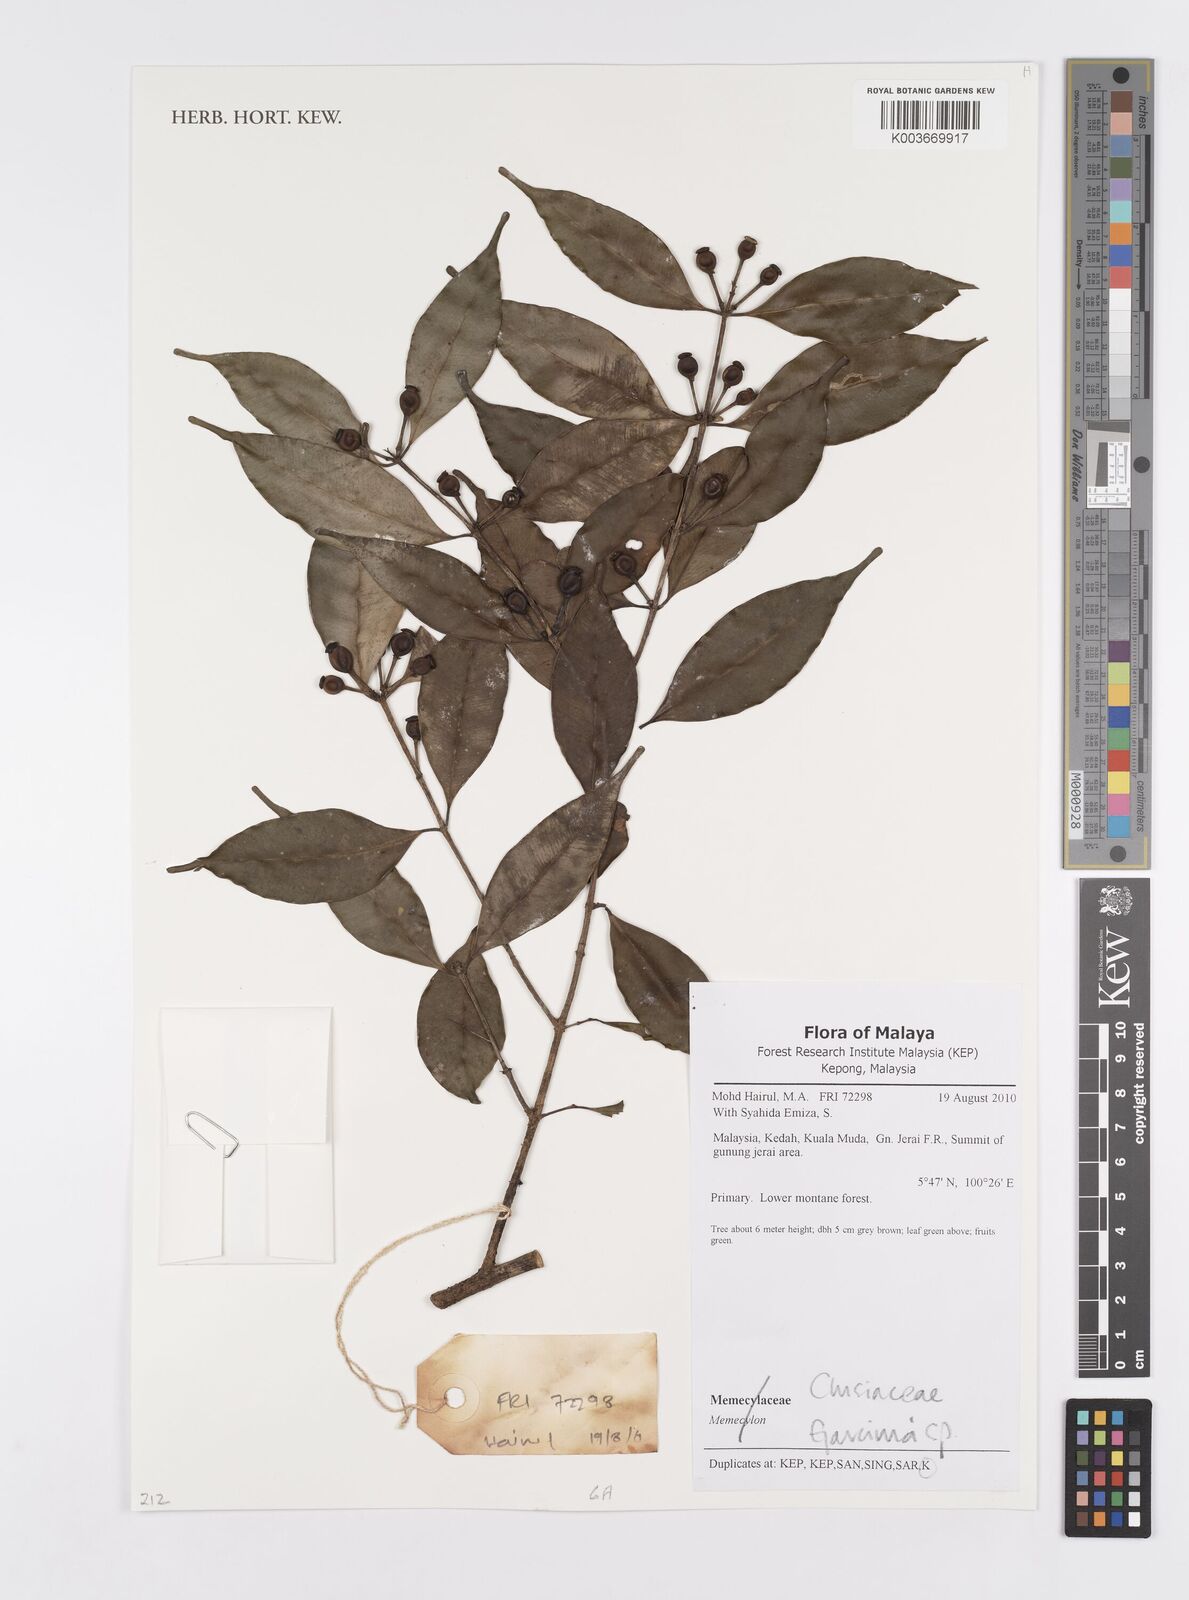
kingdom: Plantae
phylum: Tracheophyta
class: Magnoliopsida
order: Malpighiales
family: Clusiaceae
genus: Garcinia
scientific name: Garcinia
